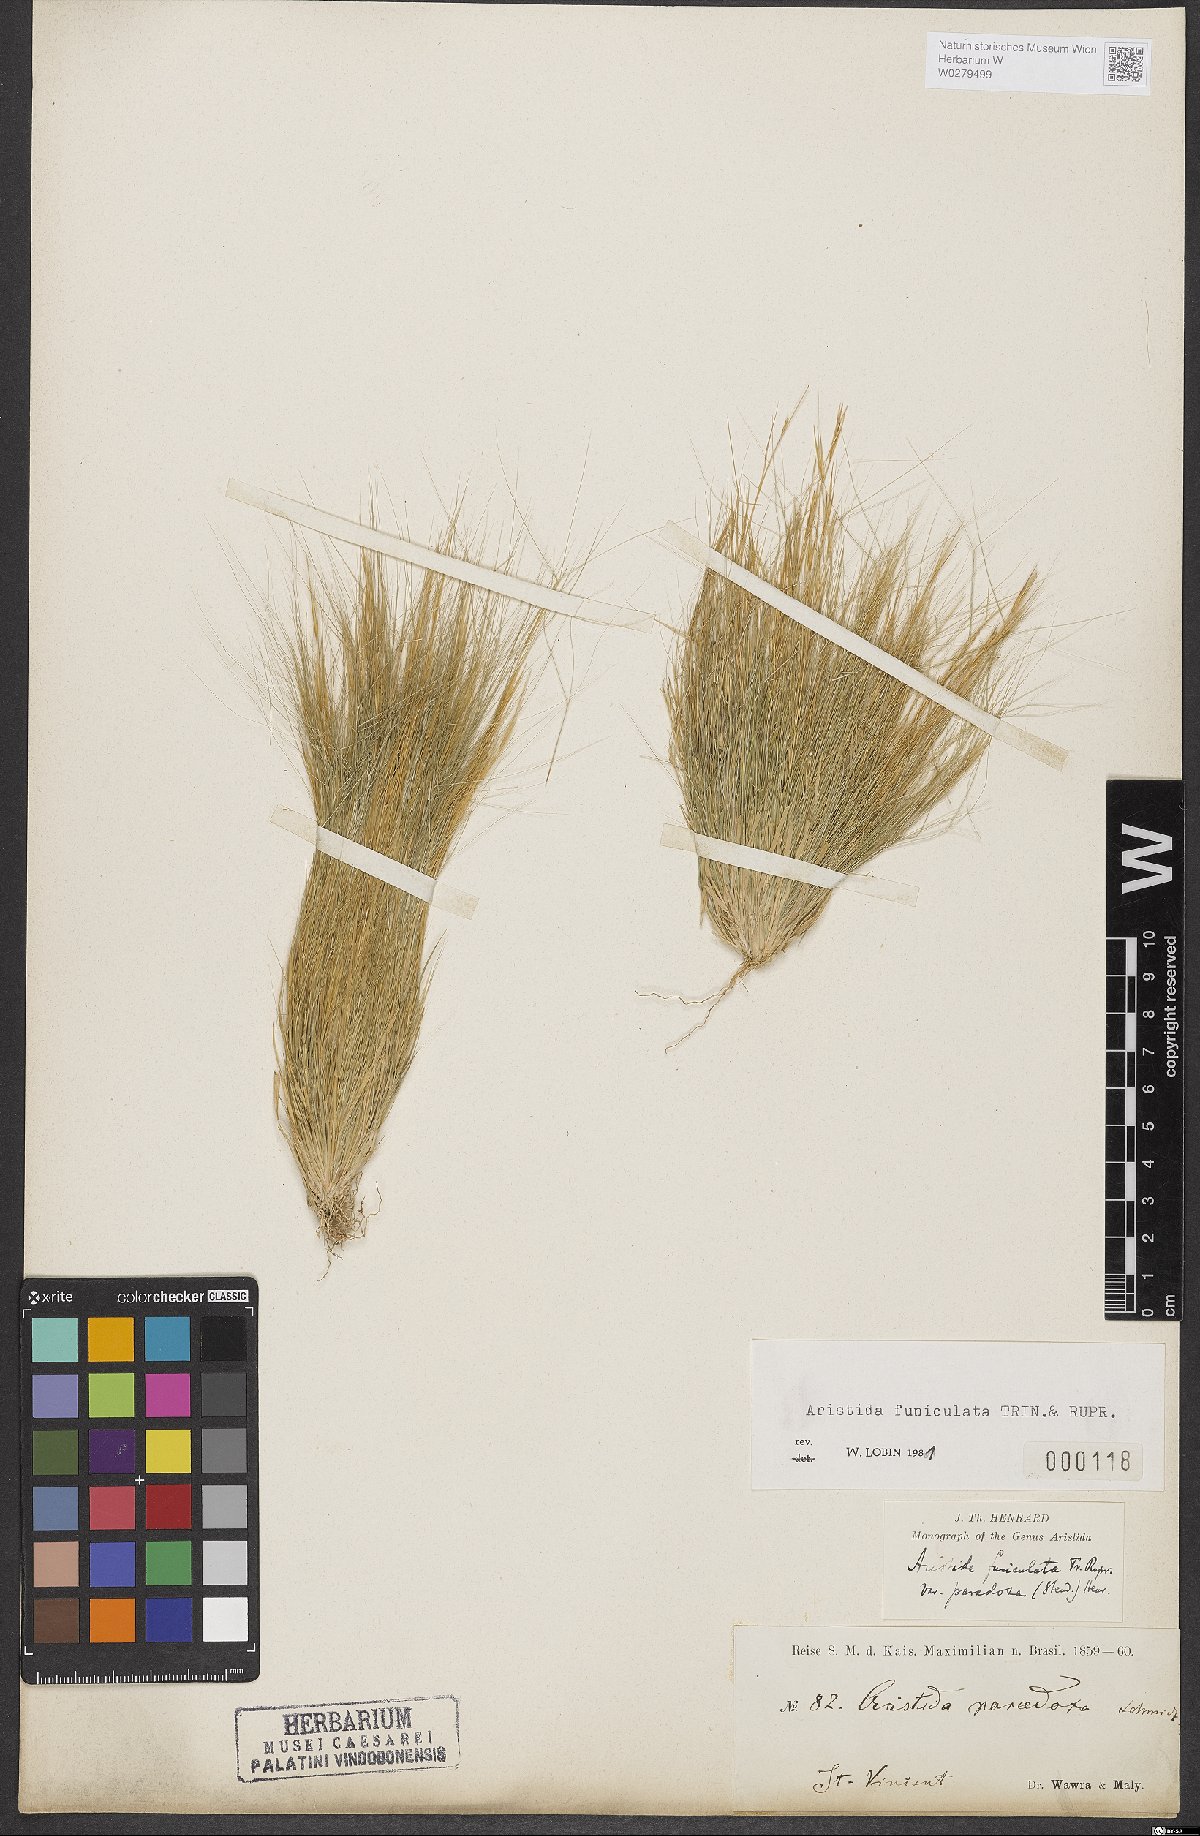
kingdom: Plantae
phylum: Tracheophyta
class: Liliopsida
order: Poales
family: Poaceae
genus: Aristida
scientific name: Aristida funiculata
